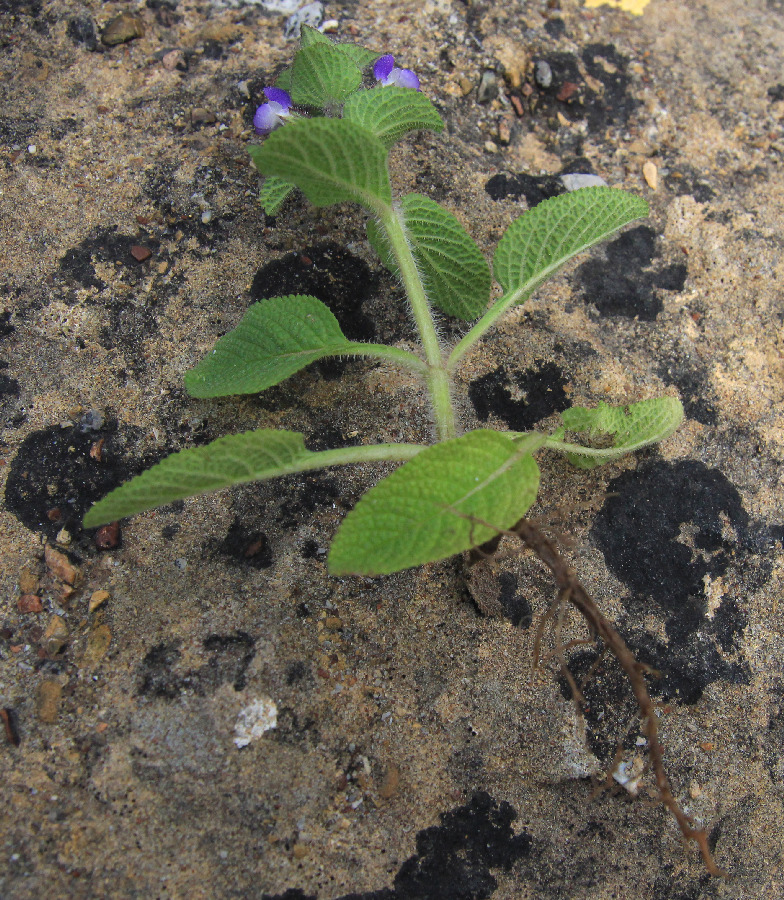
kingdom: Plantae
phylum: Tracheophyta
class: Magnoliopsida
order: Lamiales
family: Lamiaceae
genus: Salvia
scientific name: Salvia viridis
